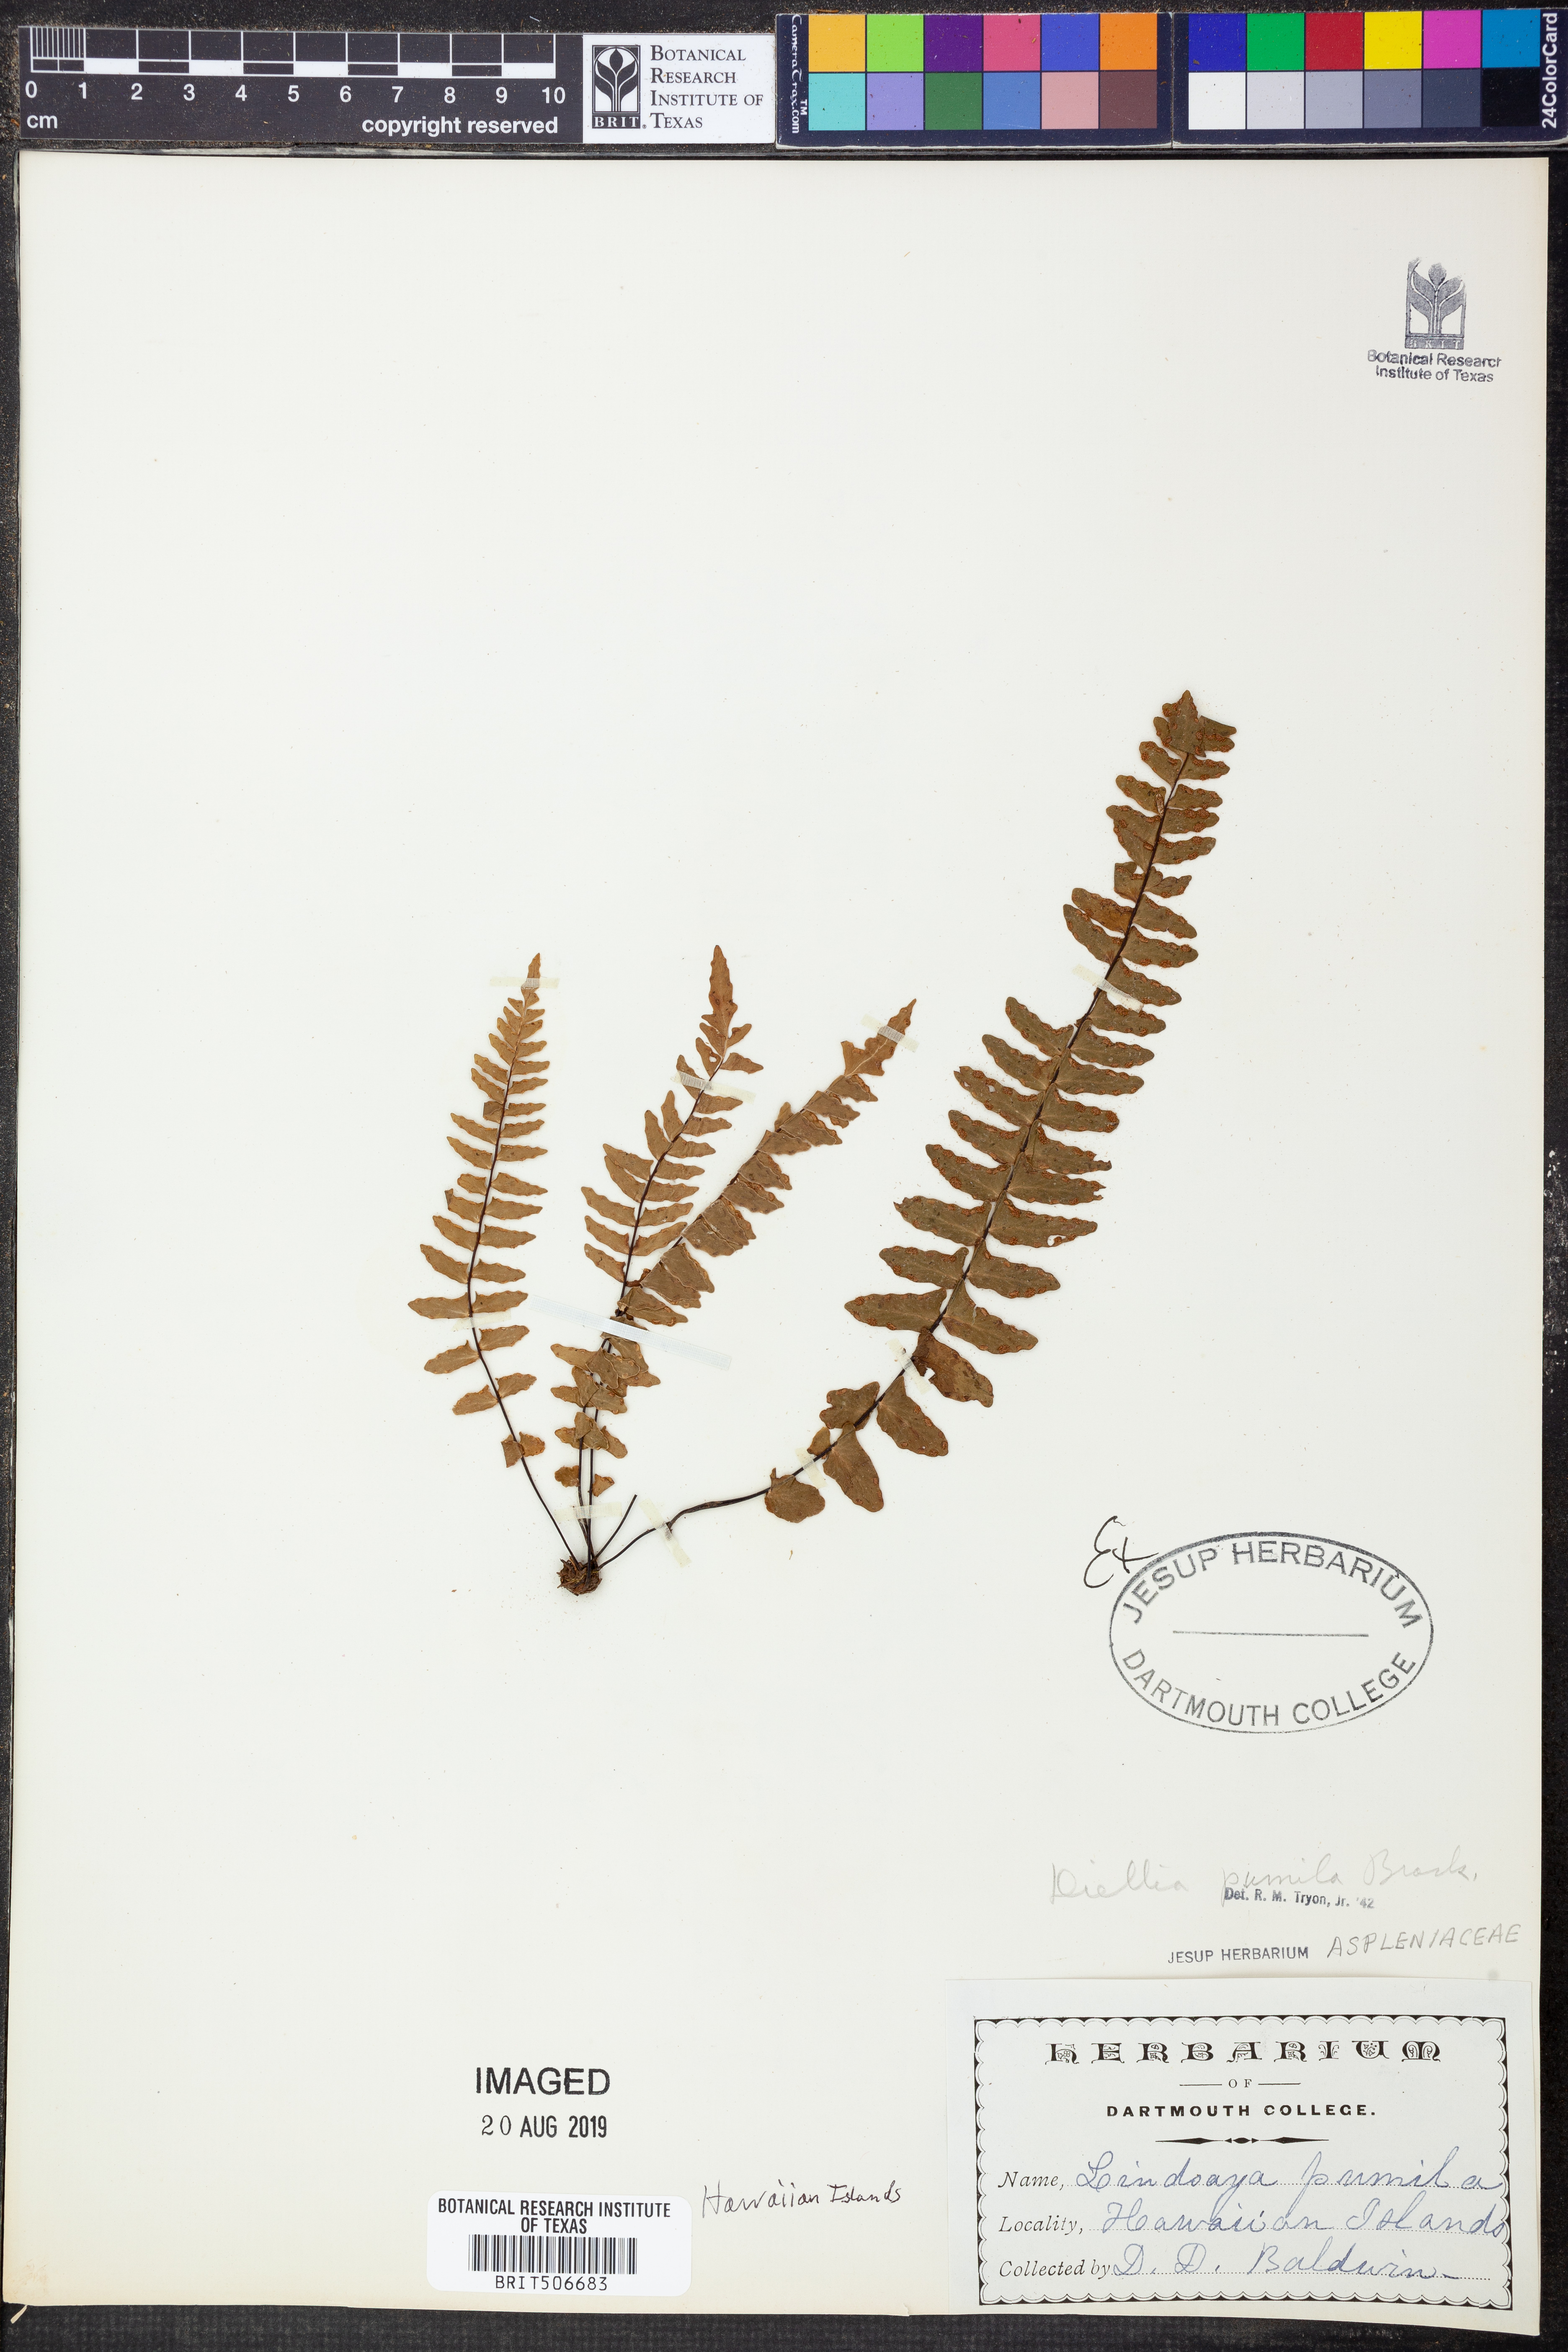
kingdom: Plantae
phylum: Tracheophyta
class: Polypodiopsida
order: Polypodiales
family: Aspleniaceae
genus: Asplenium
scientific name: Asplenium dielerectum
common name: Erect island spleenwort
